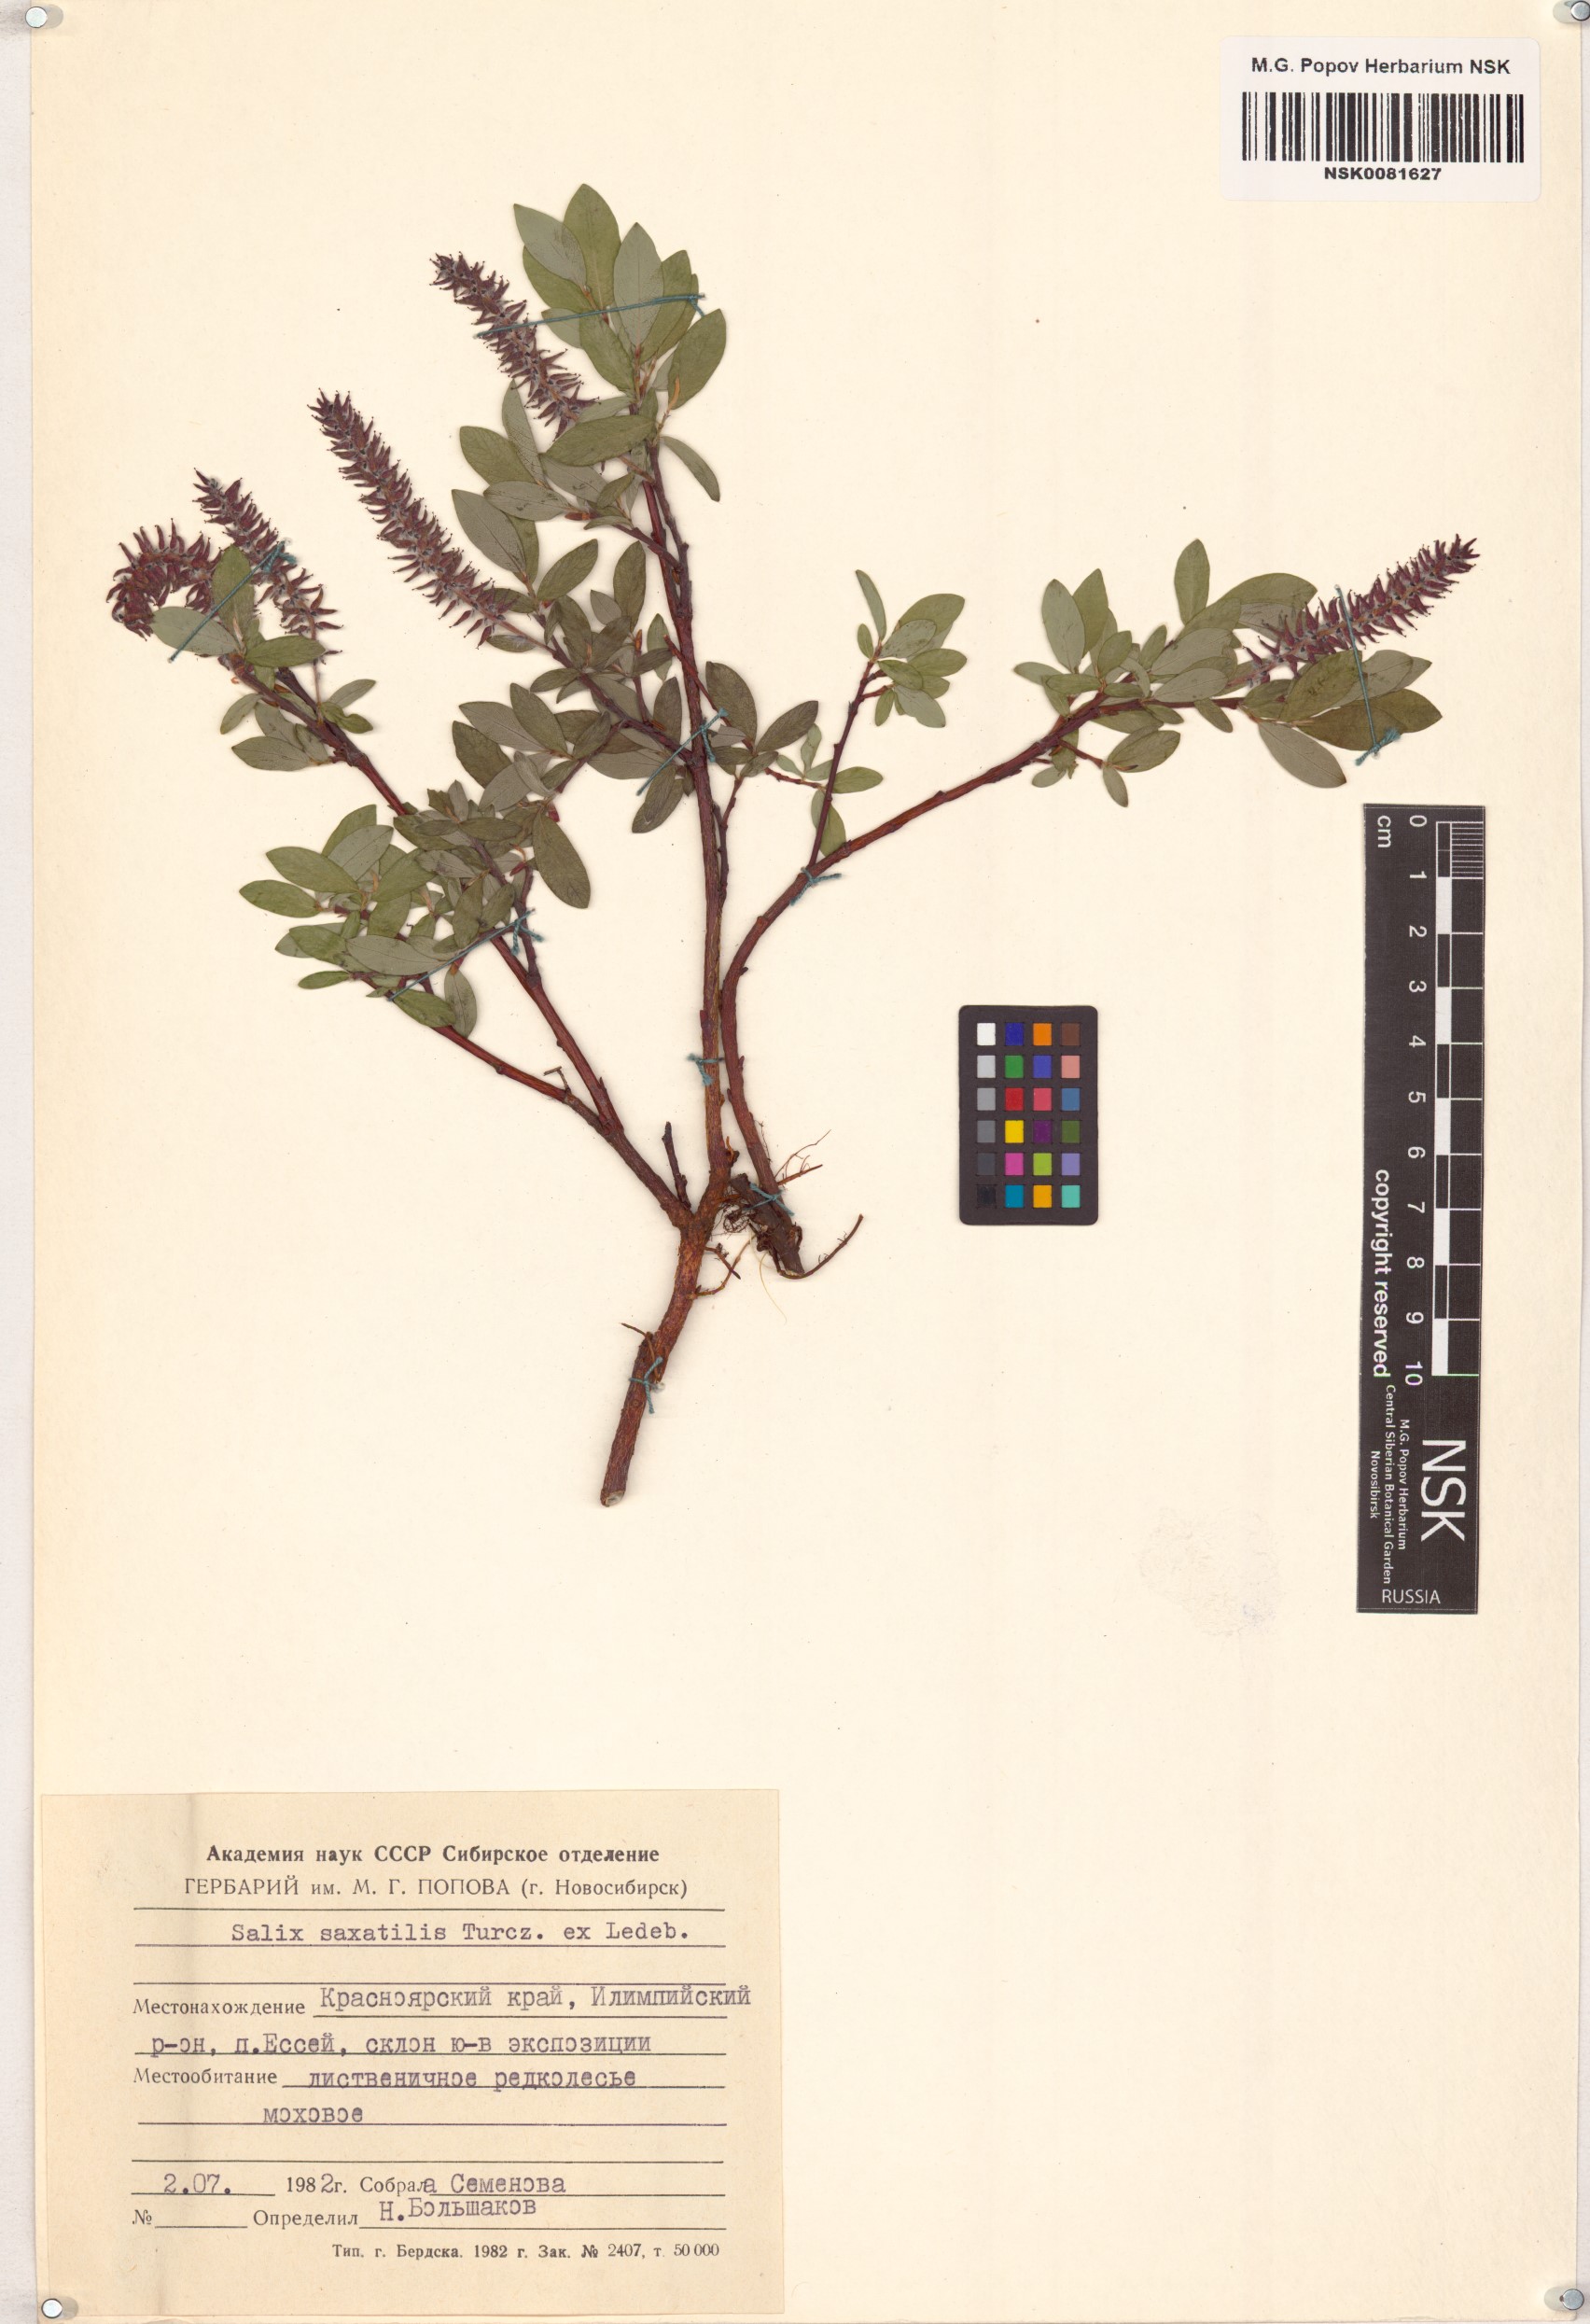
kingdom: Plantae
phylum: Tracheophyta
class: Magnoliopsida
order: Malpighiales
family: Salicaceae
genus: Salix
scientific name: Salix saxatilis
